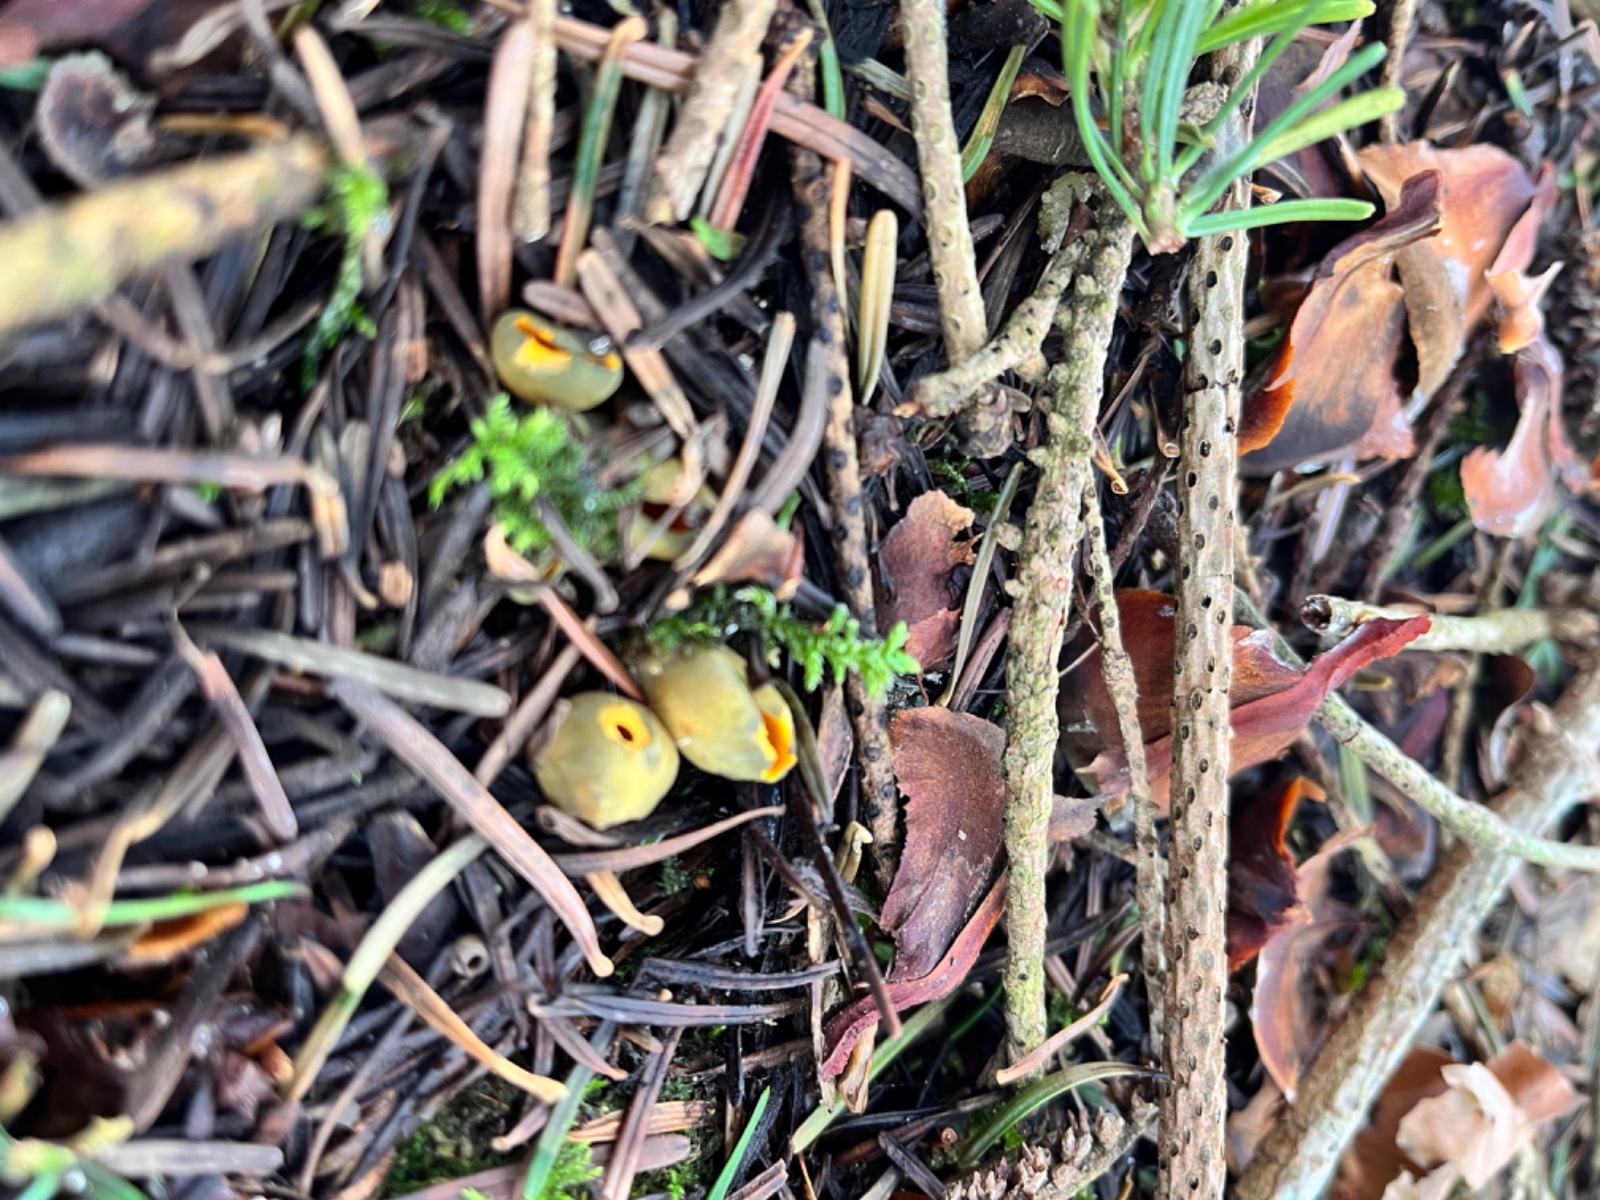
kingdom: Fungi
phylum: Ascomycota
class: Pezizomycetes
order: Pezizales
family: Caloscyphaceae
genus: Caloscypha
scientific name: Caloscypha fulgens
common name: jadebæger
